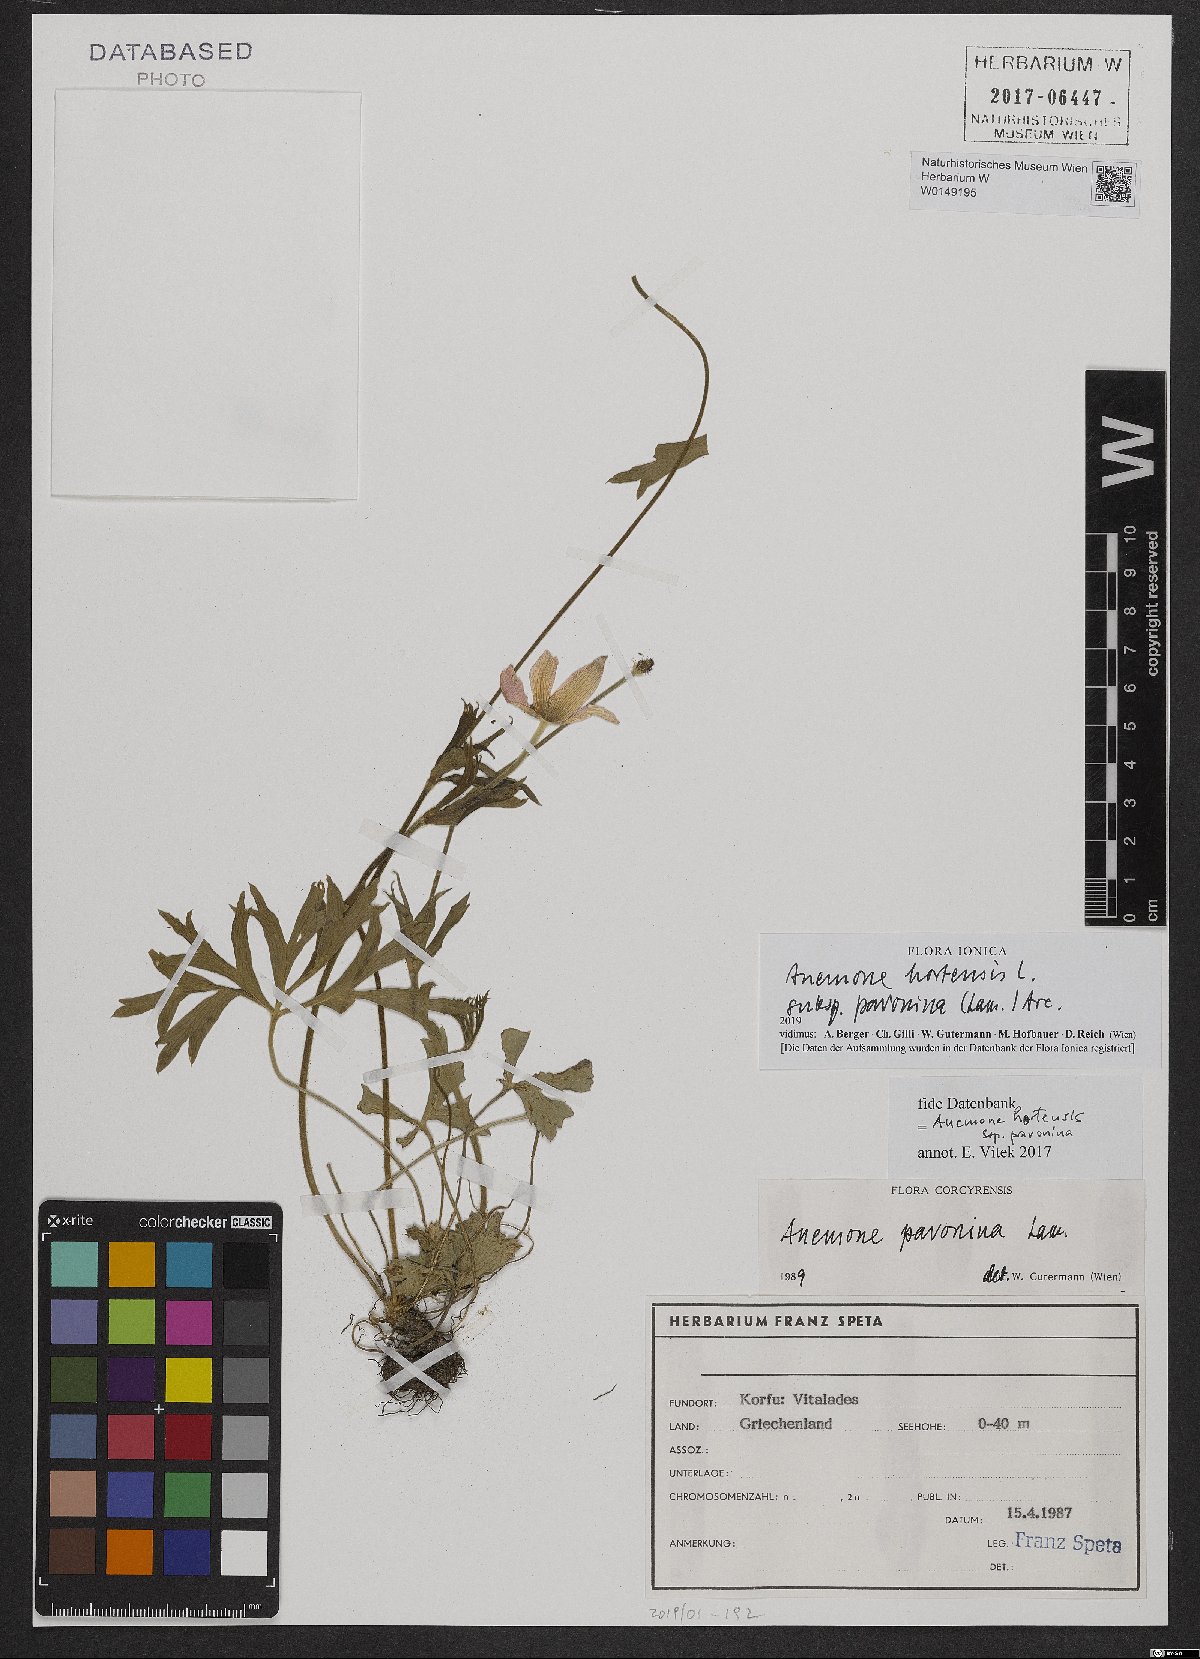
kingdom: Plantae
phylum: Tracheophyta
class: Magnoliopsida
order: Ranunculales
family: Ranunculaceae
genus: Anemone
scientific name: Anemone pavonina
